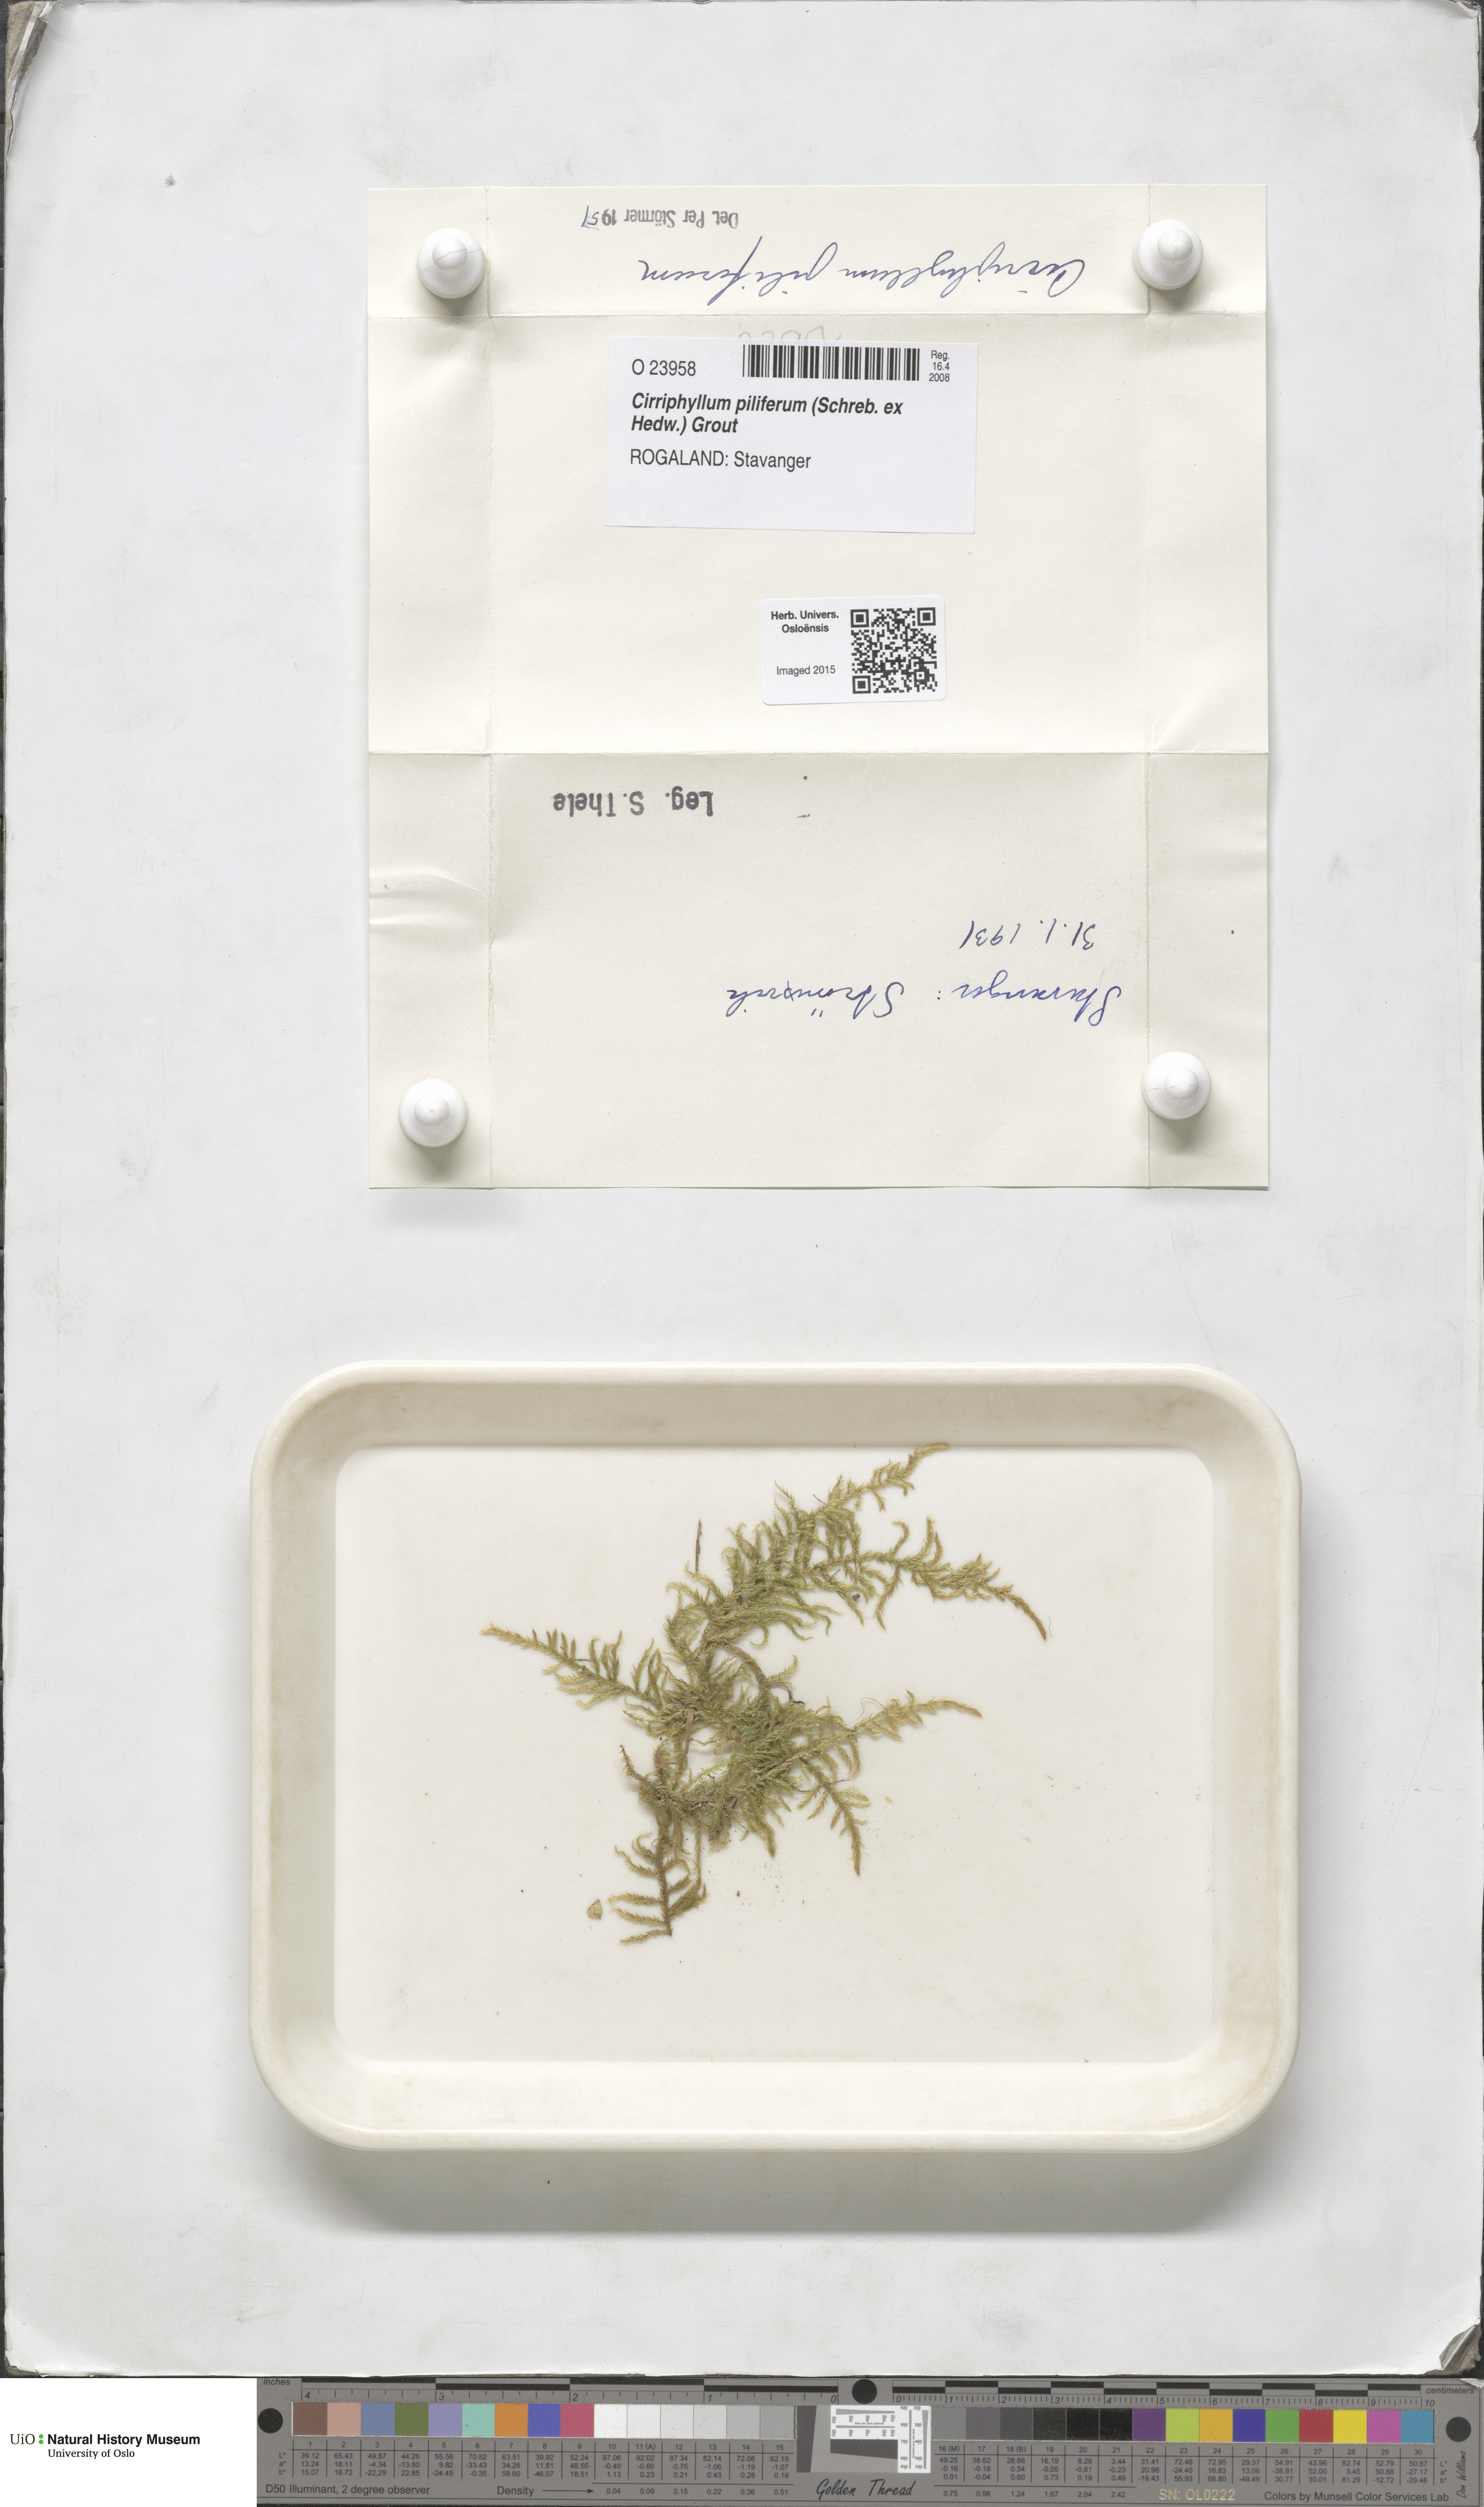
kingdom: Plantae
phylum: Bryophyta
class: Bryopsida
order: Hypnales
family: Brachytheciaceae
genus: Cirriphyllum
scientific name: Cirriphyllum piliferum
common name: Hair-pointed moss
